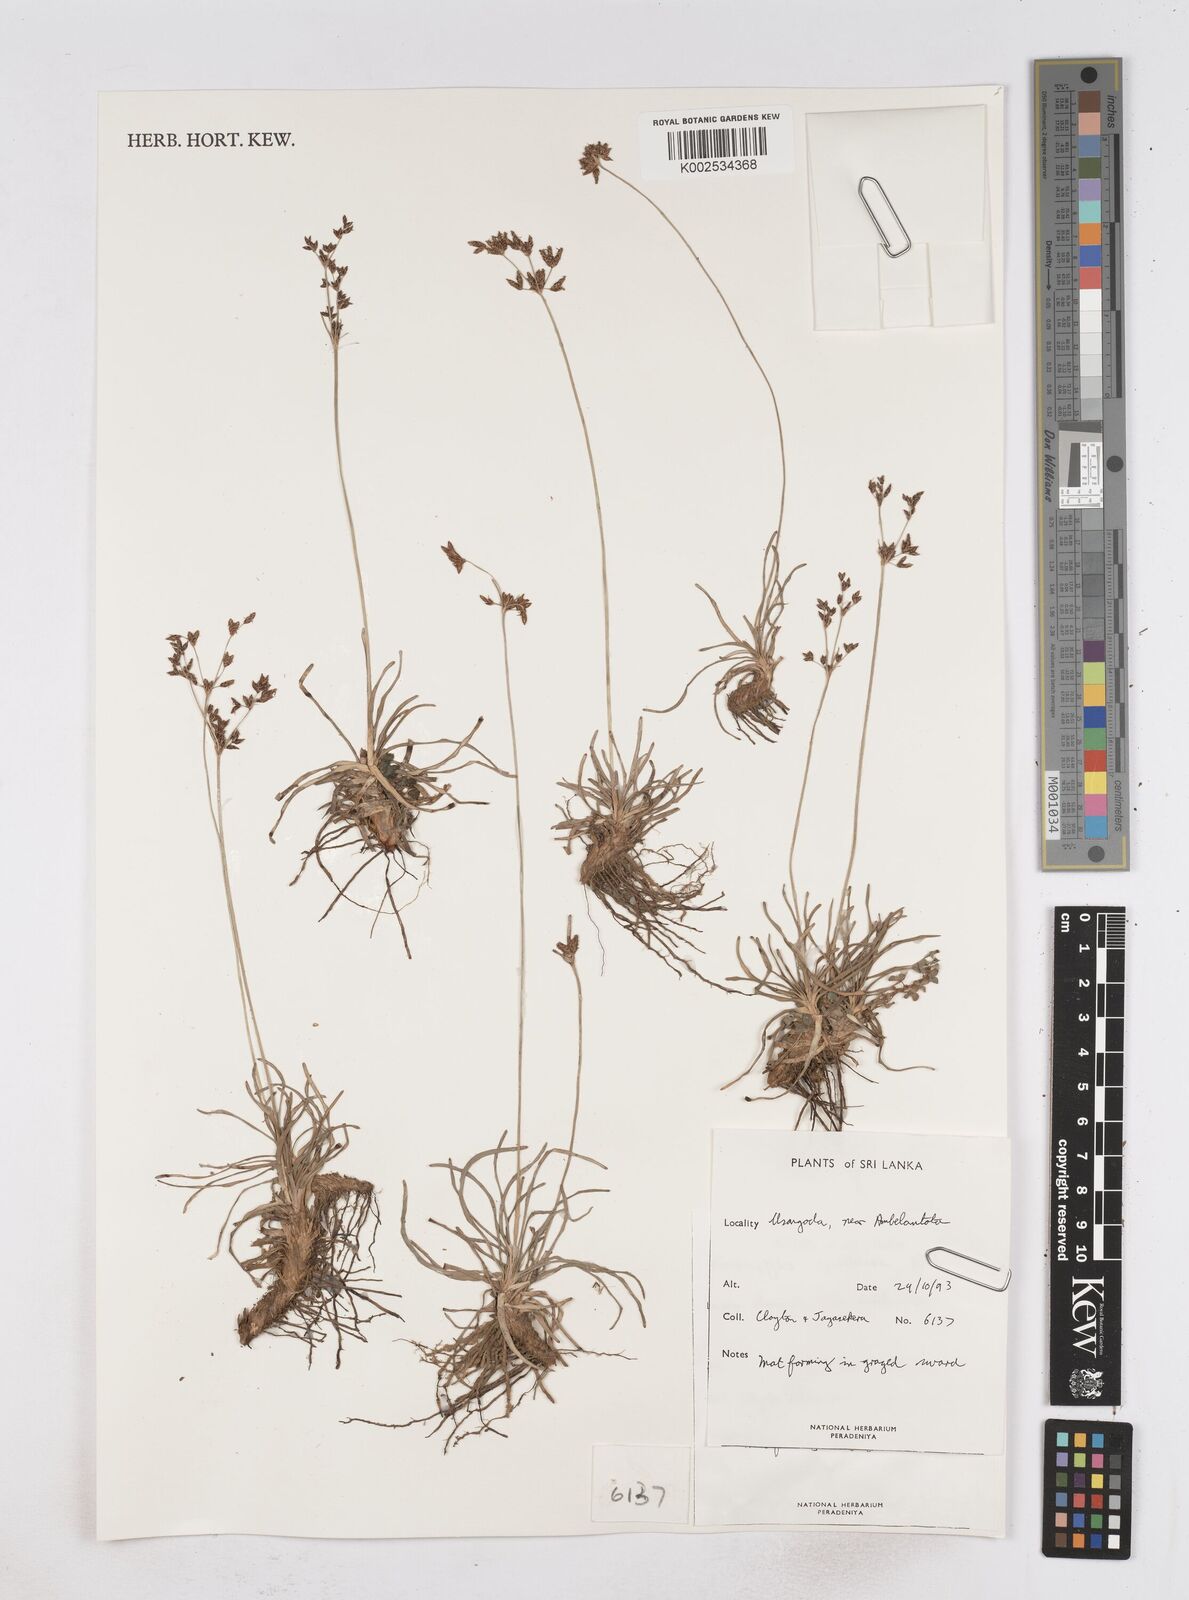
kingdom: Plantae
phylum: Tracheophyta
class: Liliopsida
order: Poales
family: Cyperaceae
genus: Fimbristylis
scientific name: Fimbristylis cymosa
